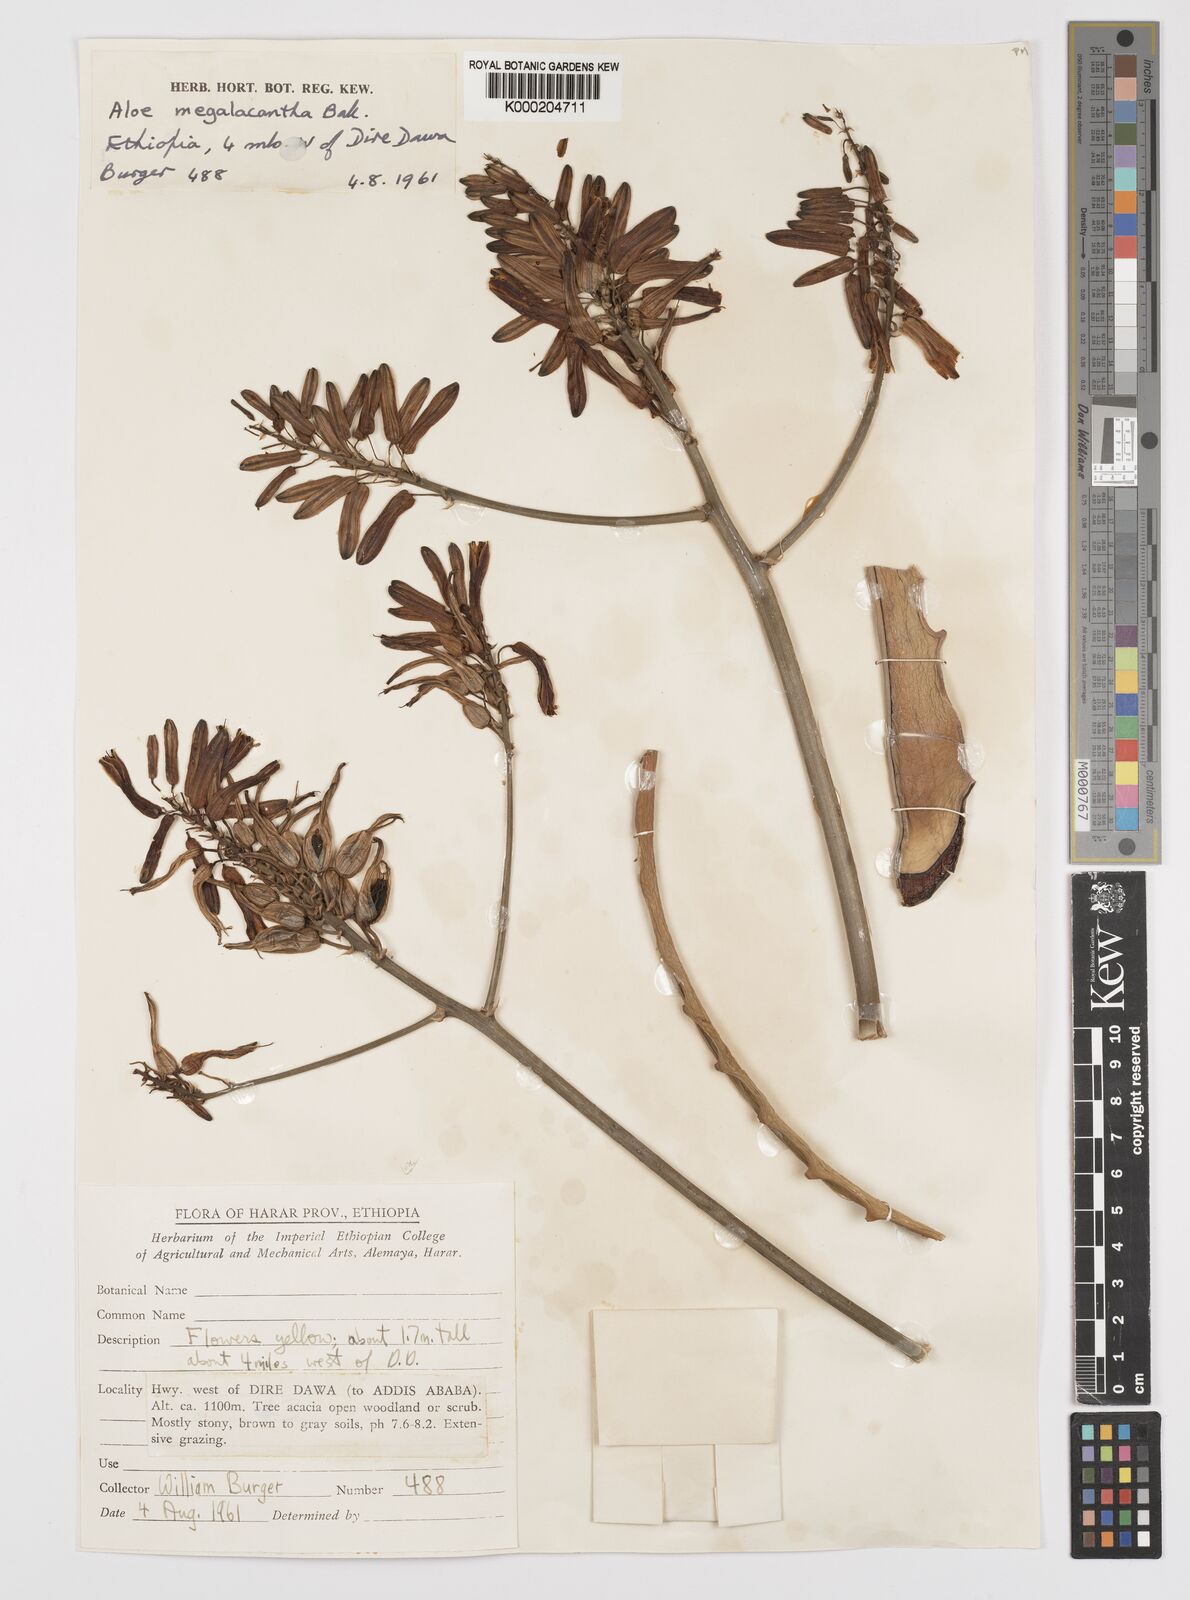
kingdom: Plantae
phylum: Tracheophyta
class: Liliopsida
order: Asparagales
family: Asphodelaceae
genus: Aloe
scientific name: Aloe megalacantha
